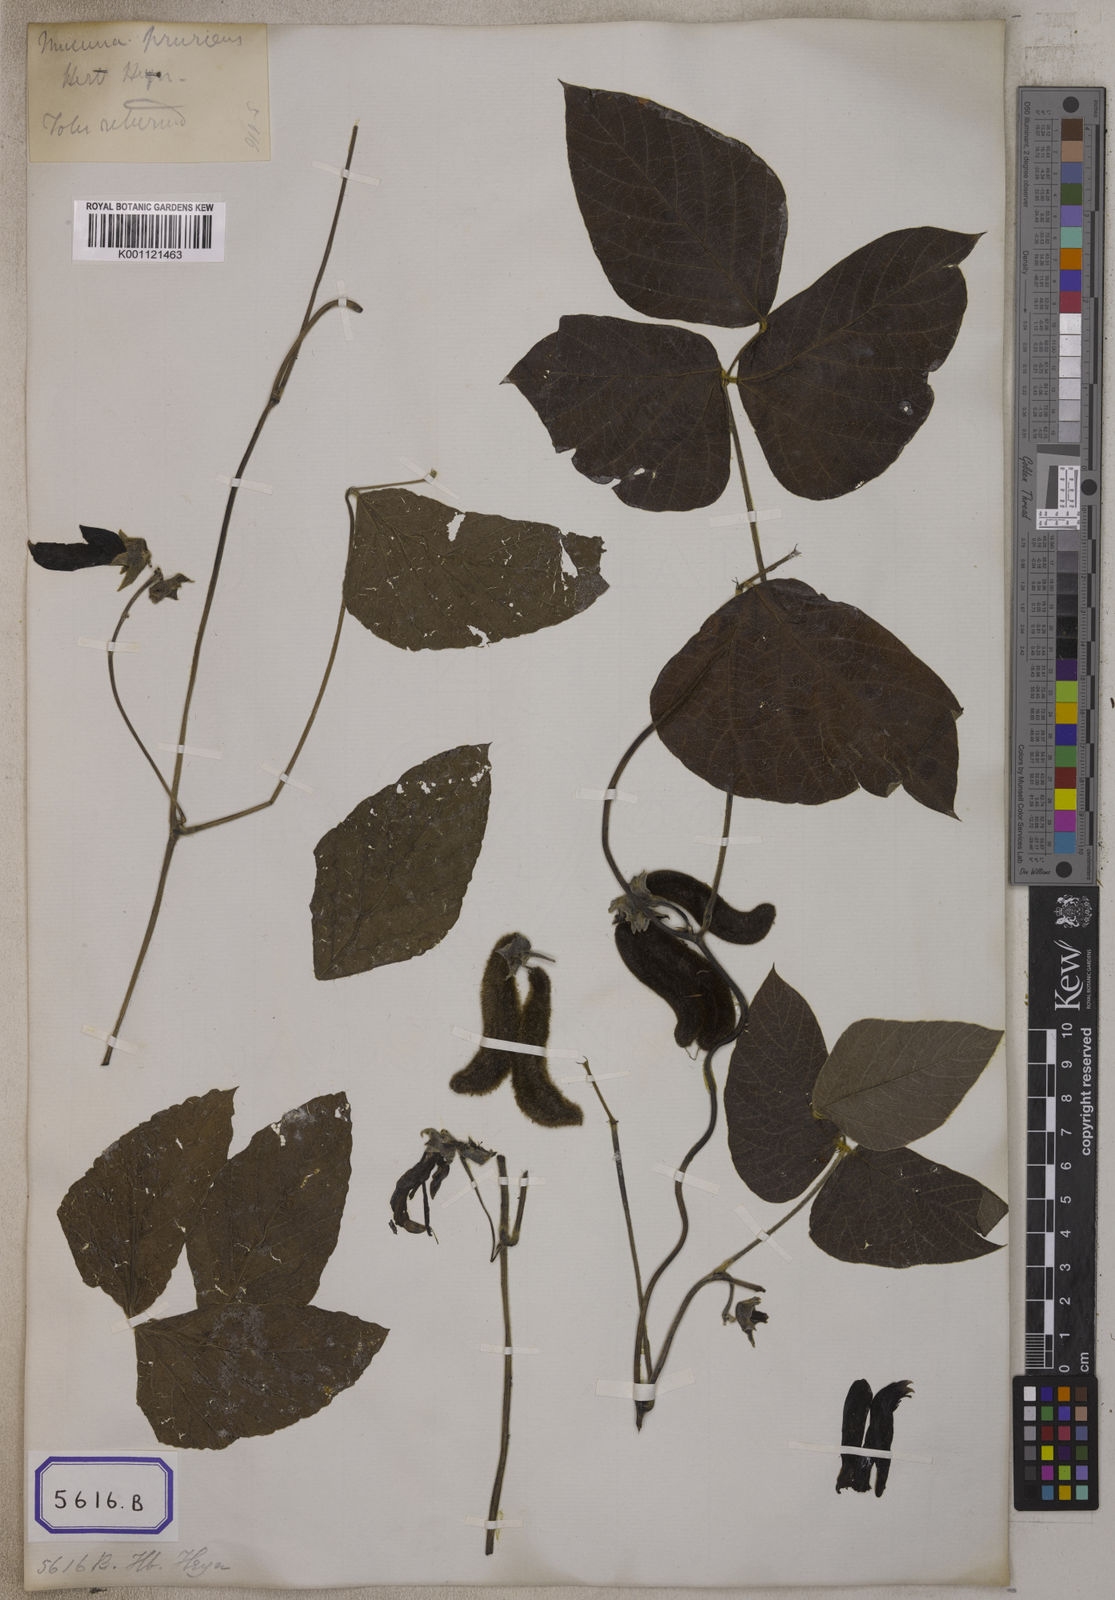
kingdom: Plantae
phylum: Tracheophyta
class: Magnoliopsida
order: Fabales
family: Fabaceae
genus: Mucuna
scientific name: Mucuna pruriens
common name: Cow-itch
